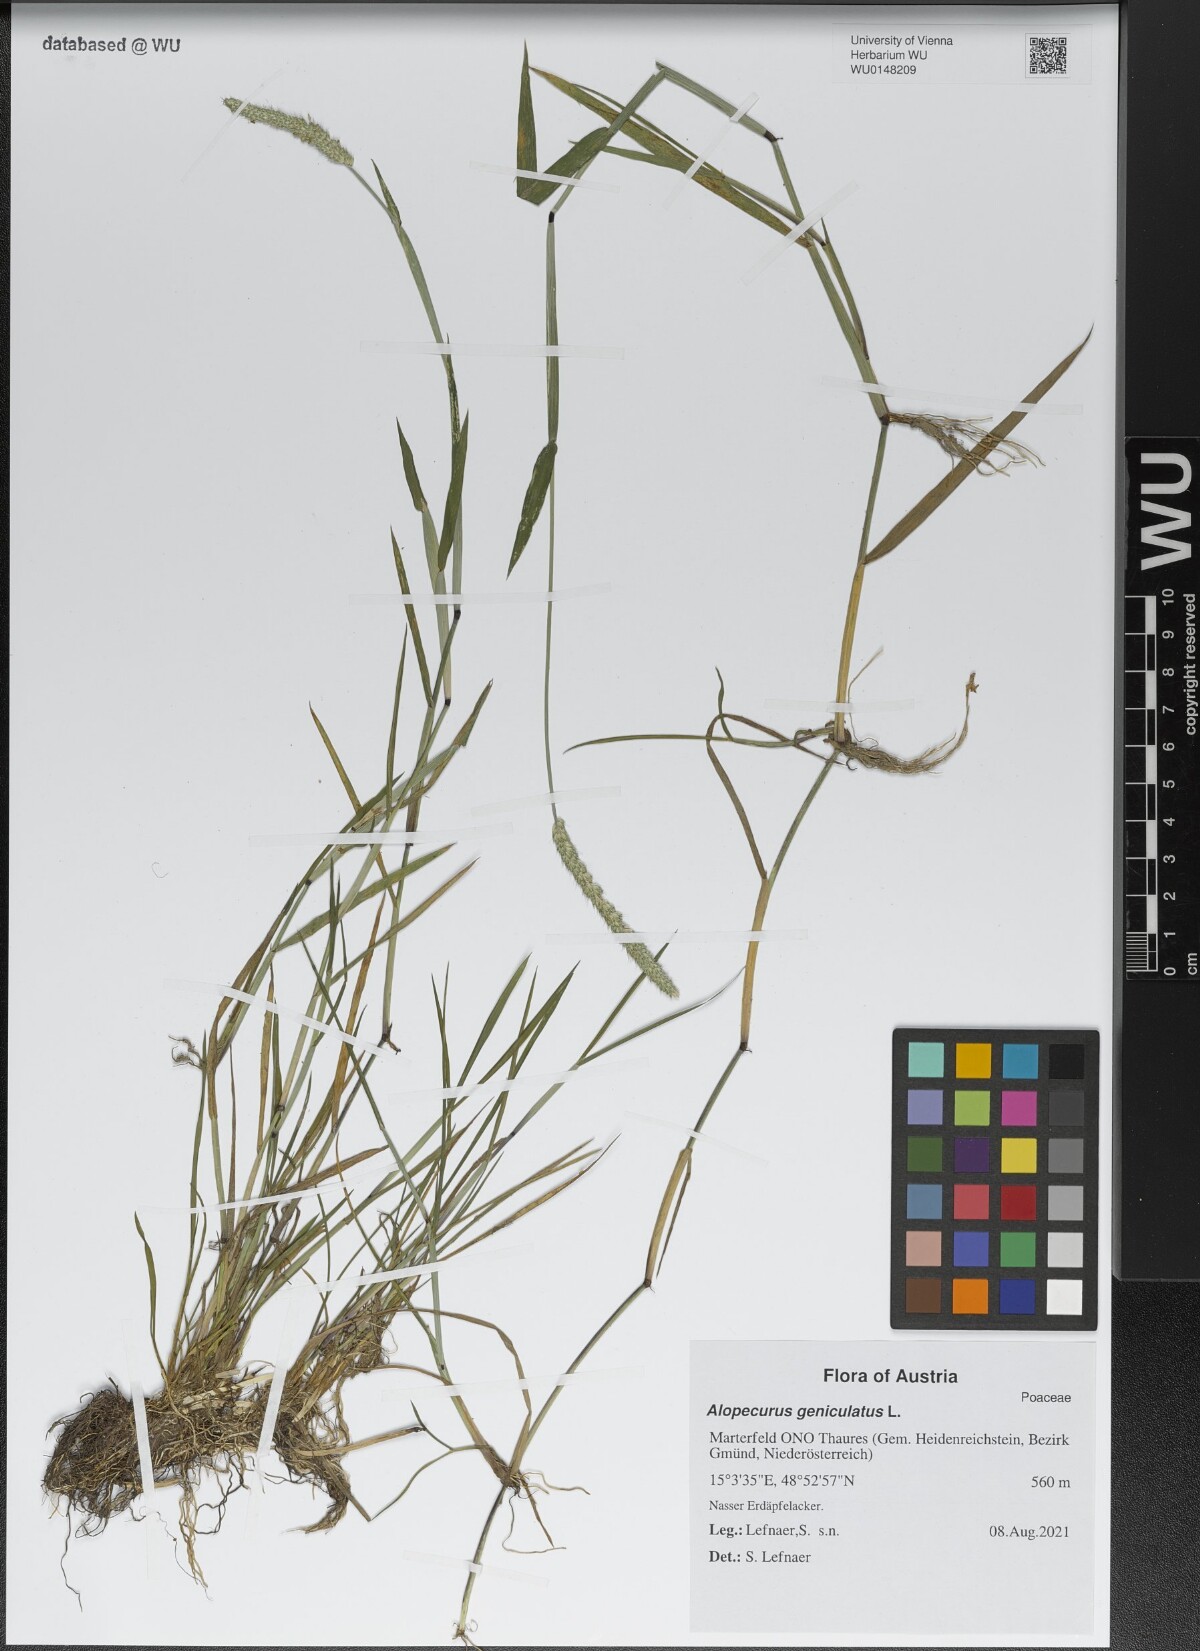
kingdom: Plantae
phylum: Tracheophyta
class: Liliopsida
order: Poales
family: Poaceae
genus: Alopecurus
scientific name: Alopecurus geniculatus
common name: Water foxtail
